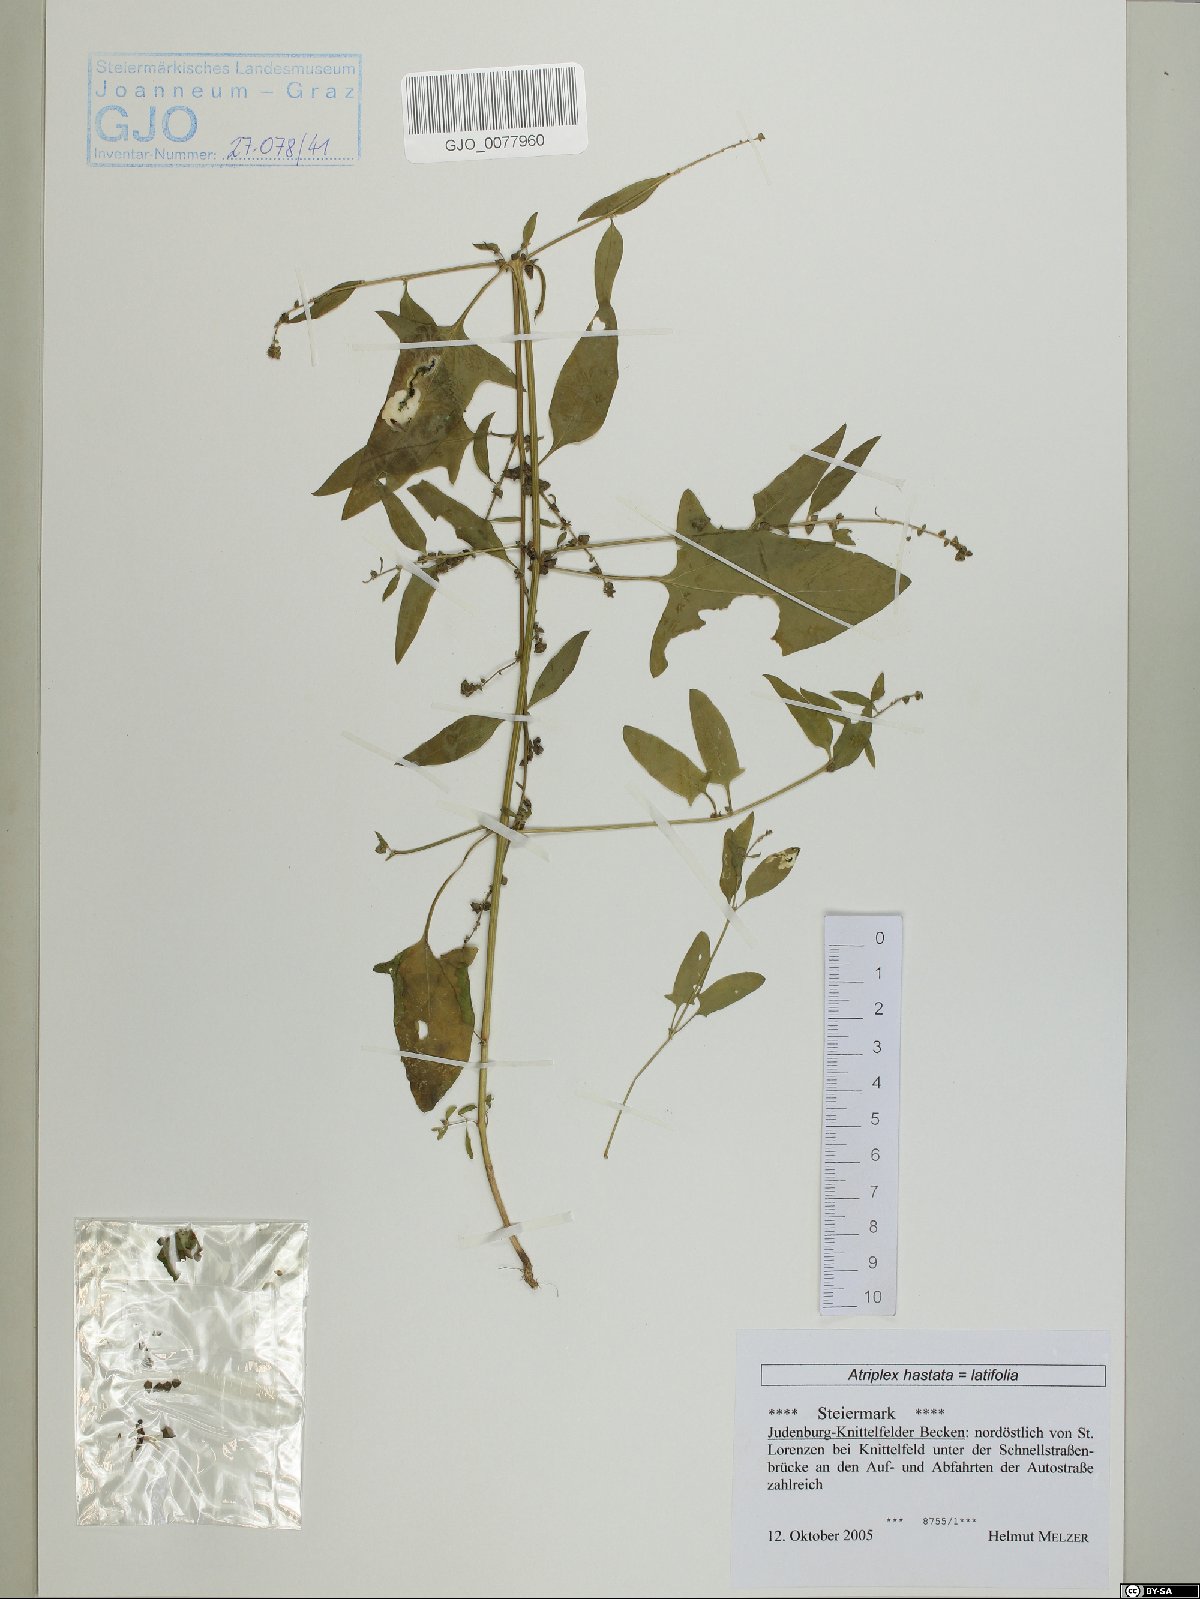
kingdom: Plantae
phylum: Tracheophyta
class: Magnoliopsida
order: Caryophyllales
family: Amaranthaceae
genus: Atriplex
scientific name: Atriplex calotheca
